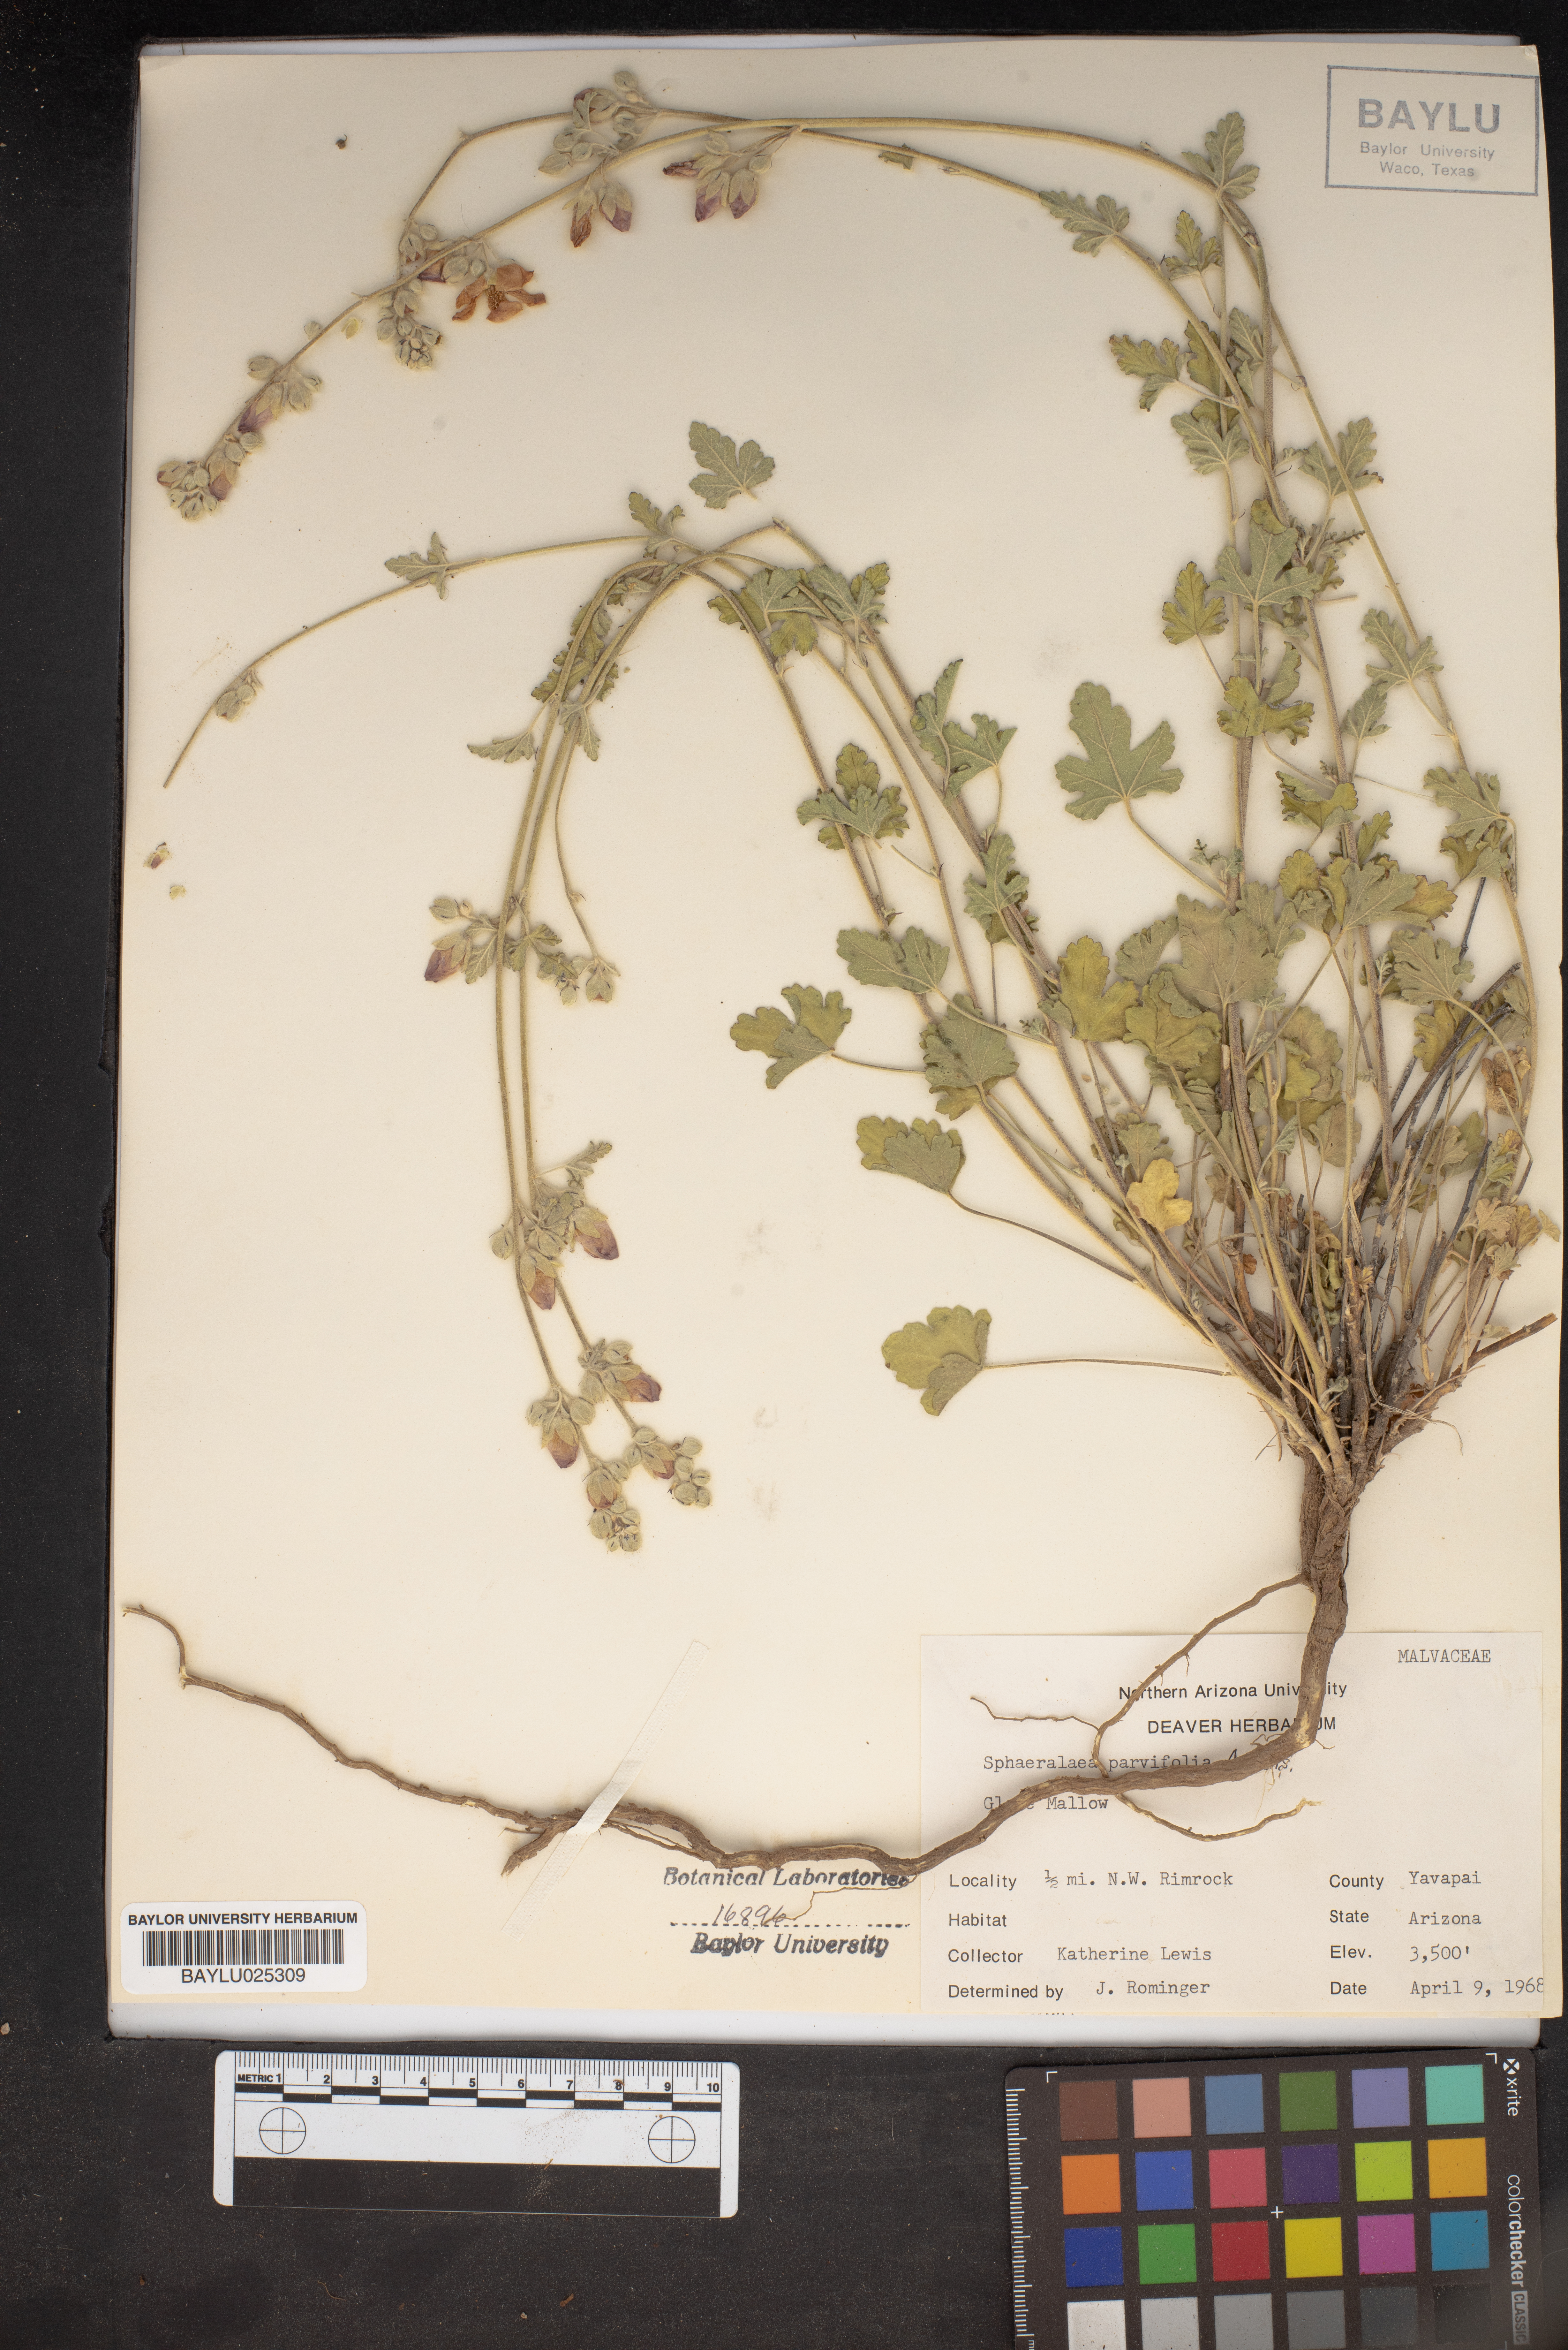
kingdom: Plantae
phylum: Tracheophyta
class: Magnoliopsida
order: Malvales
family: Malvaceae
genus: Sphaeralcea
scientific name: Sphaeralcea parvifolia
